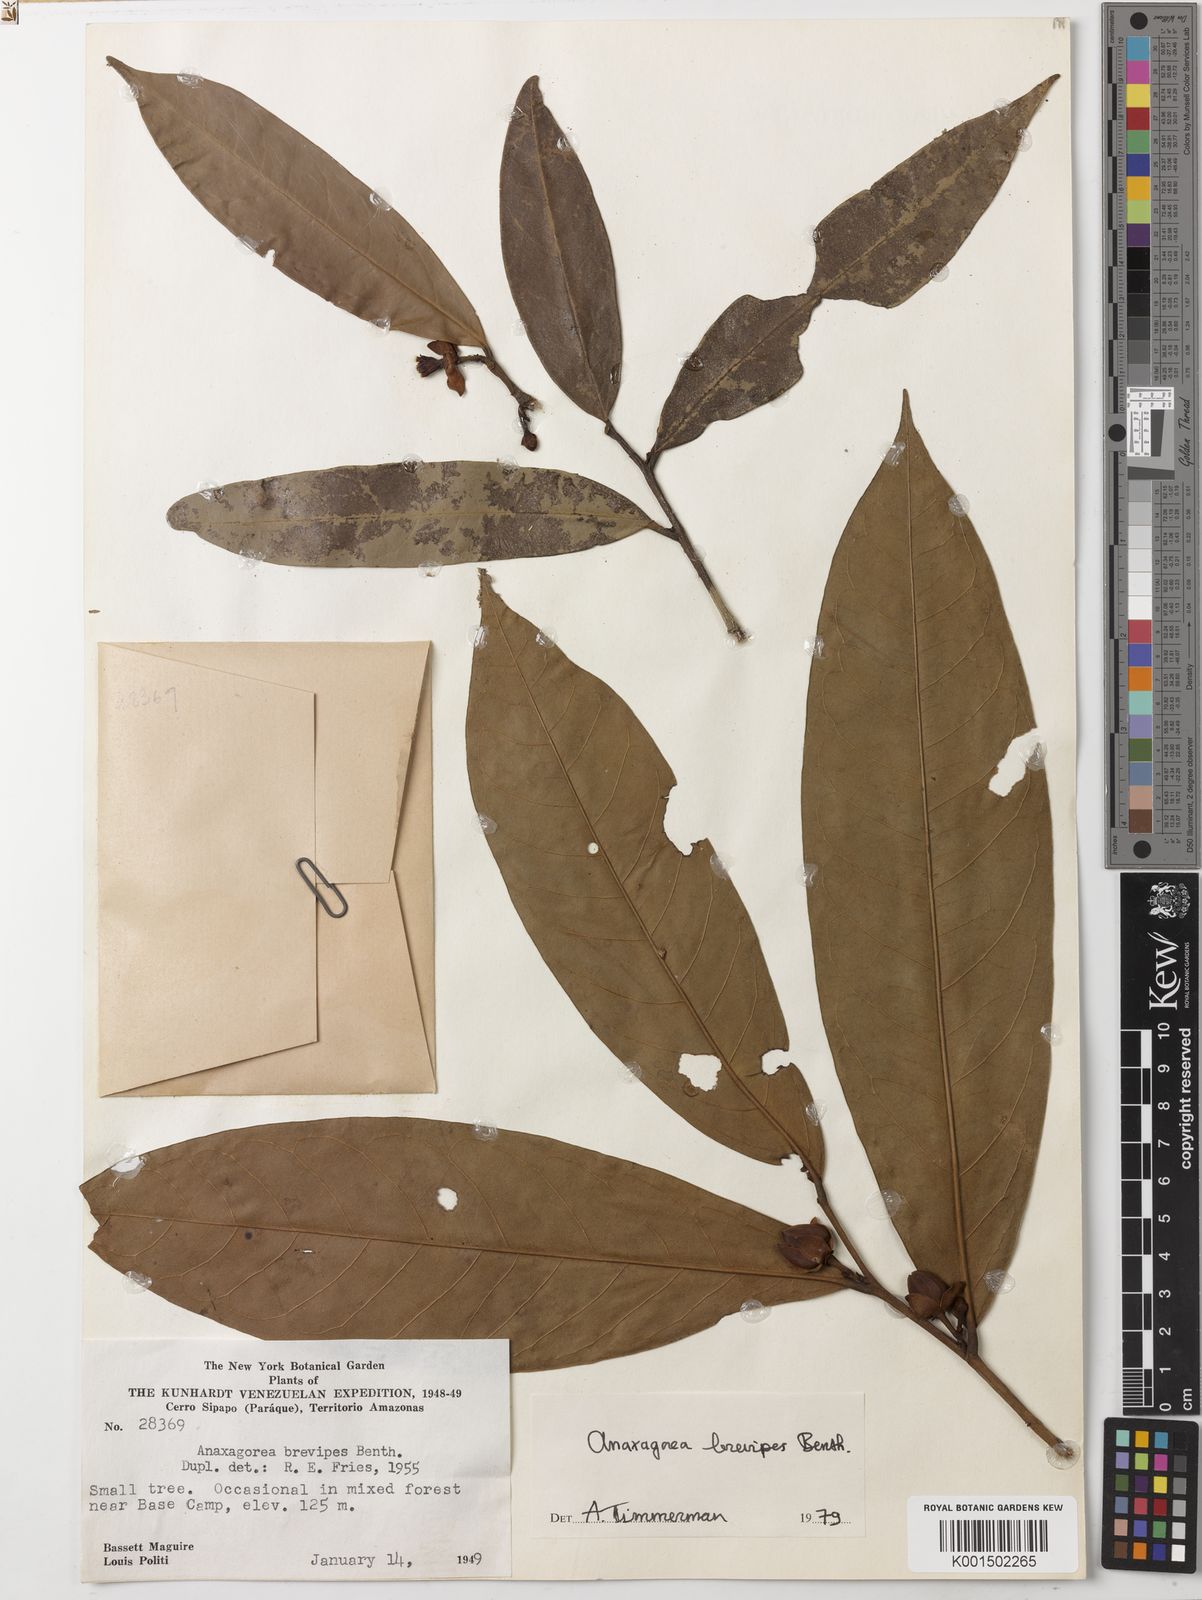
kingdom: Plantae
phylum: Tracheophyta
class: Magnoliopsida
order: Magnoliales
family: Annonaceae
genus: Anaxagorea
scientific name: Anaxagorea brevipes
